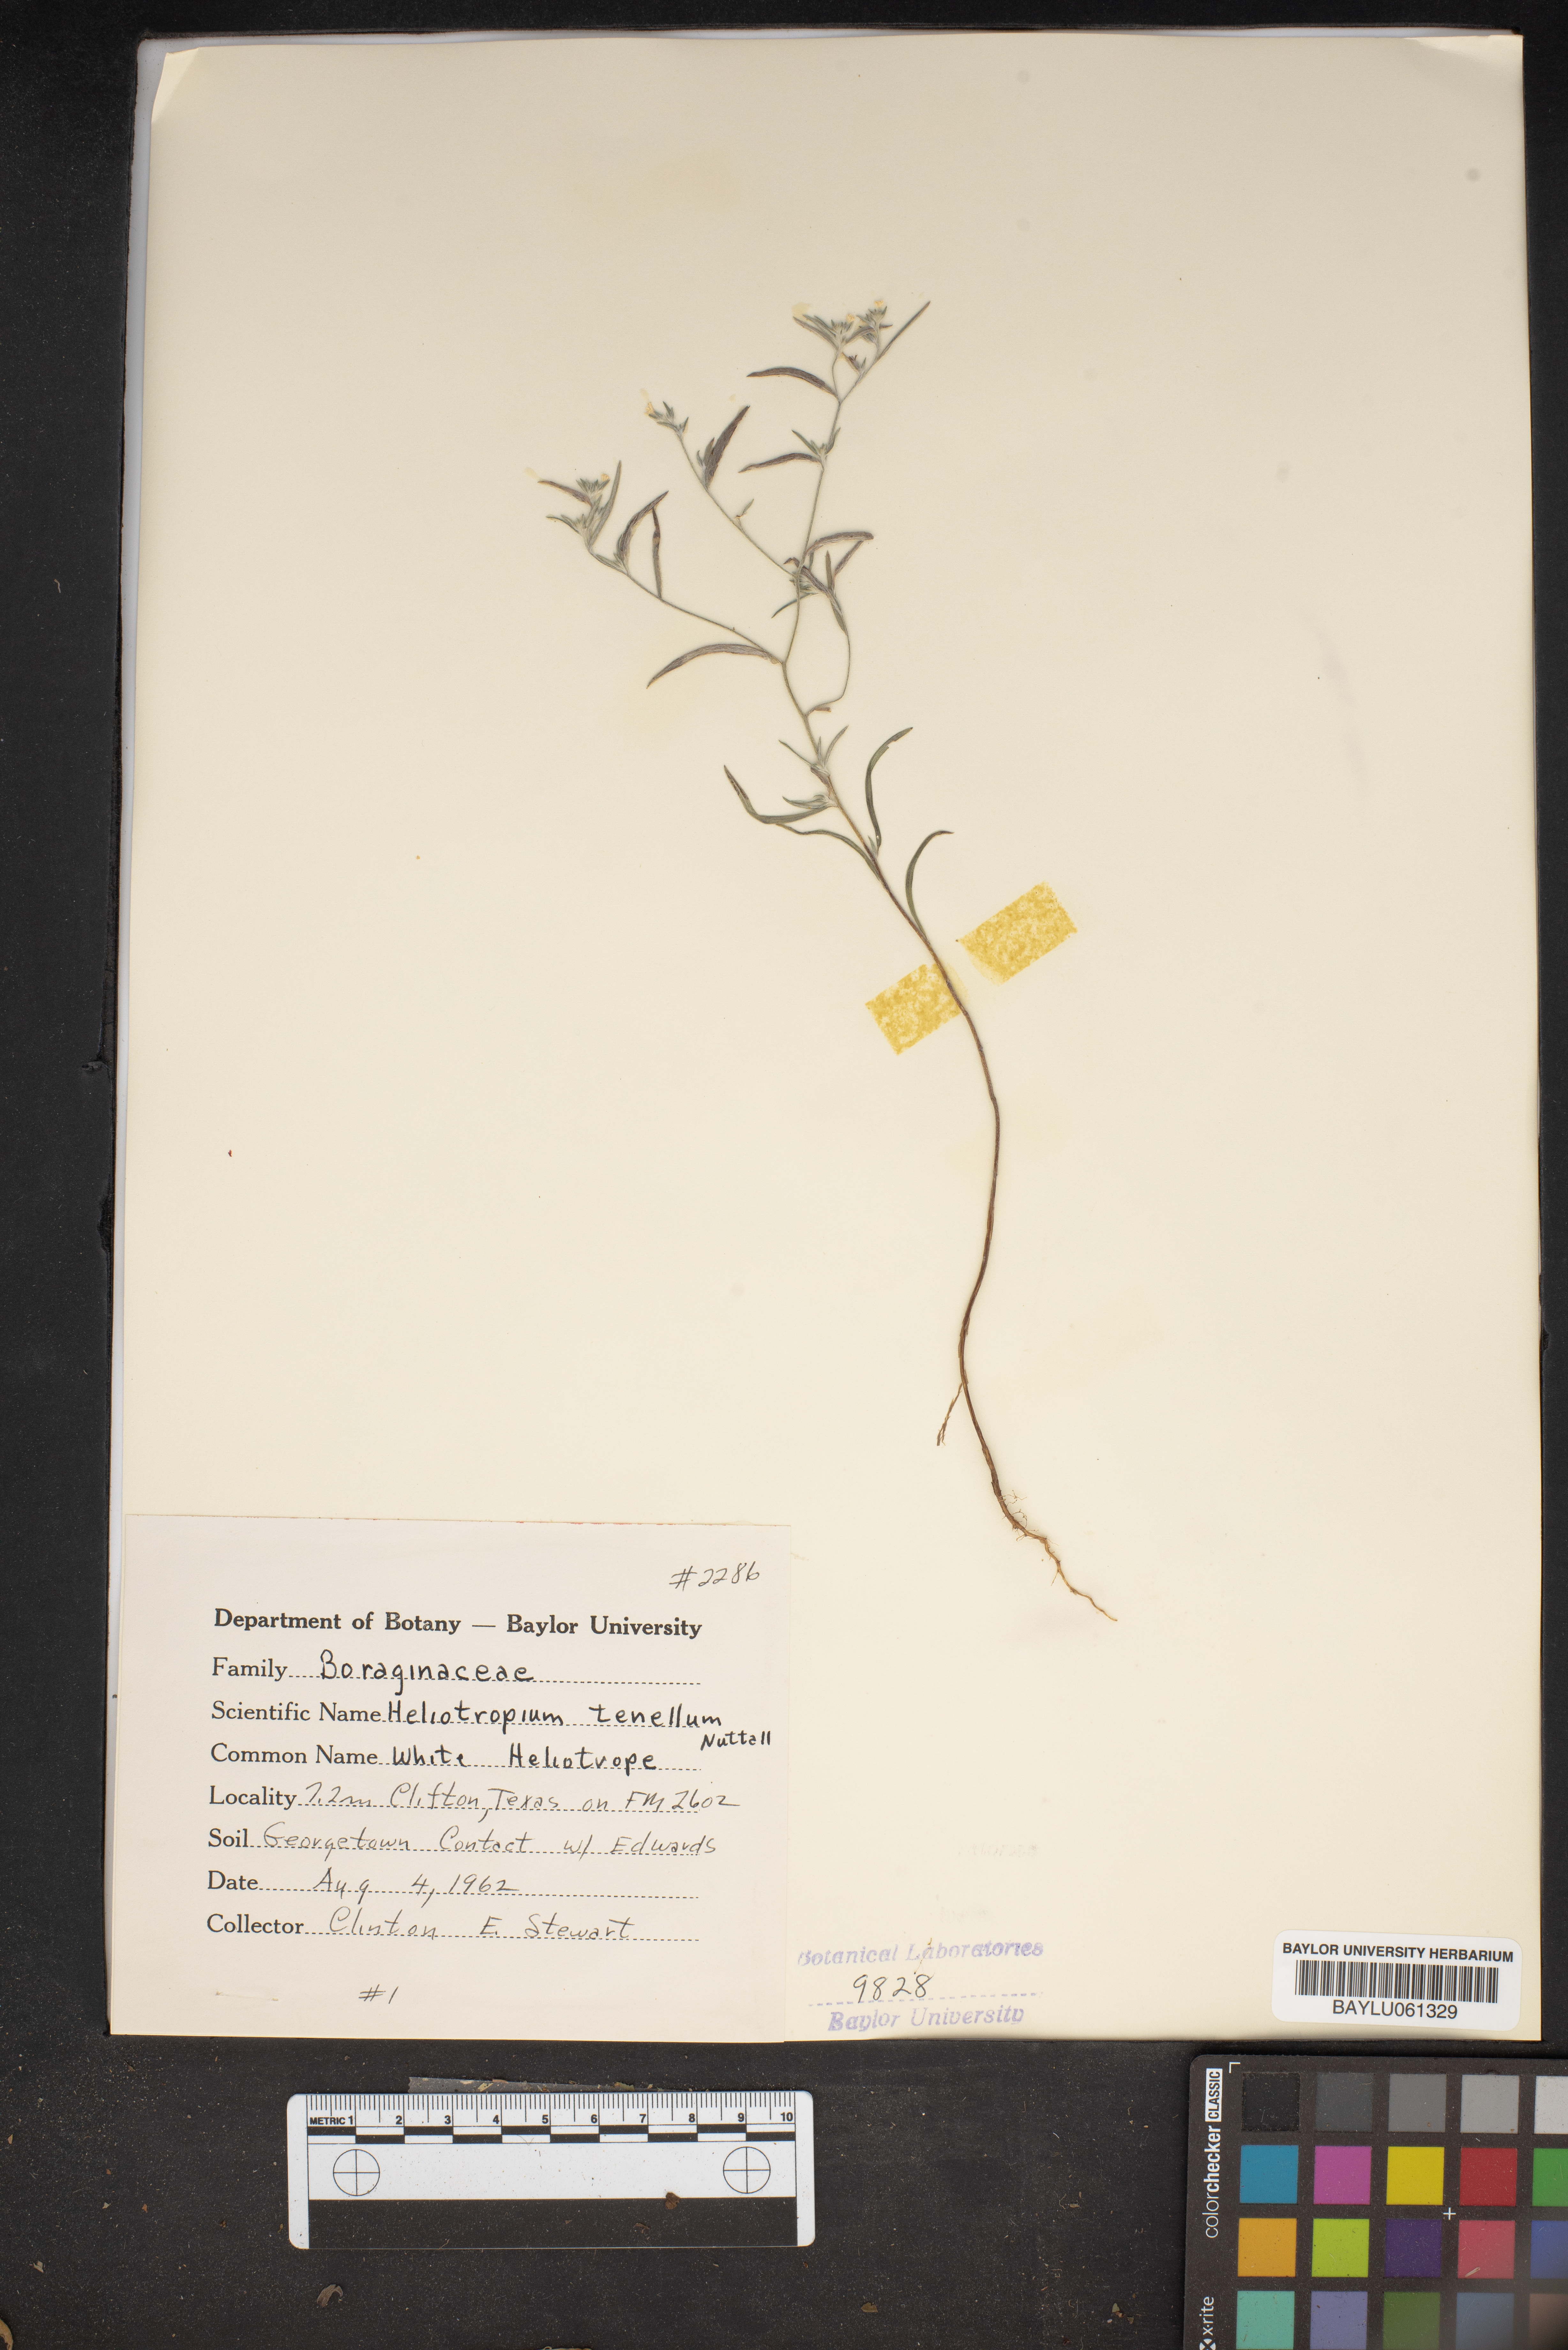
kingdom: Plantae
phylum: Tracheophyta
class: Magnoliopsida
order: Boraginales
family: Heliotropiaceae
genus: Euploca
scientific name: Euploca tenella
